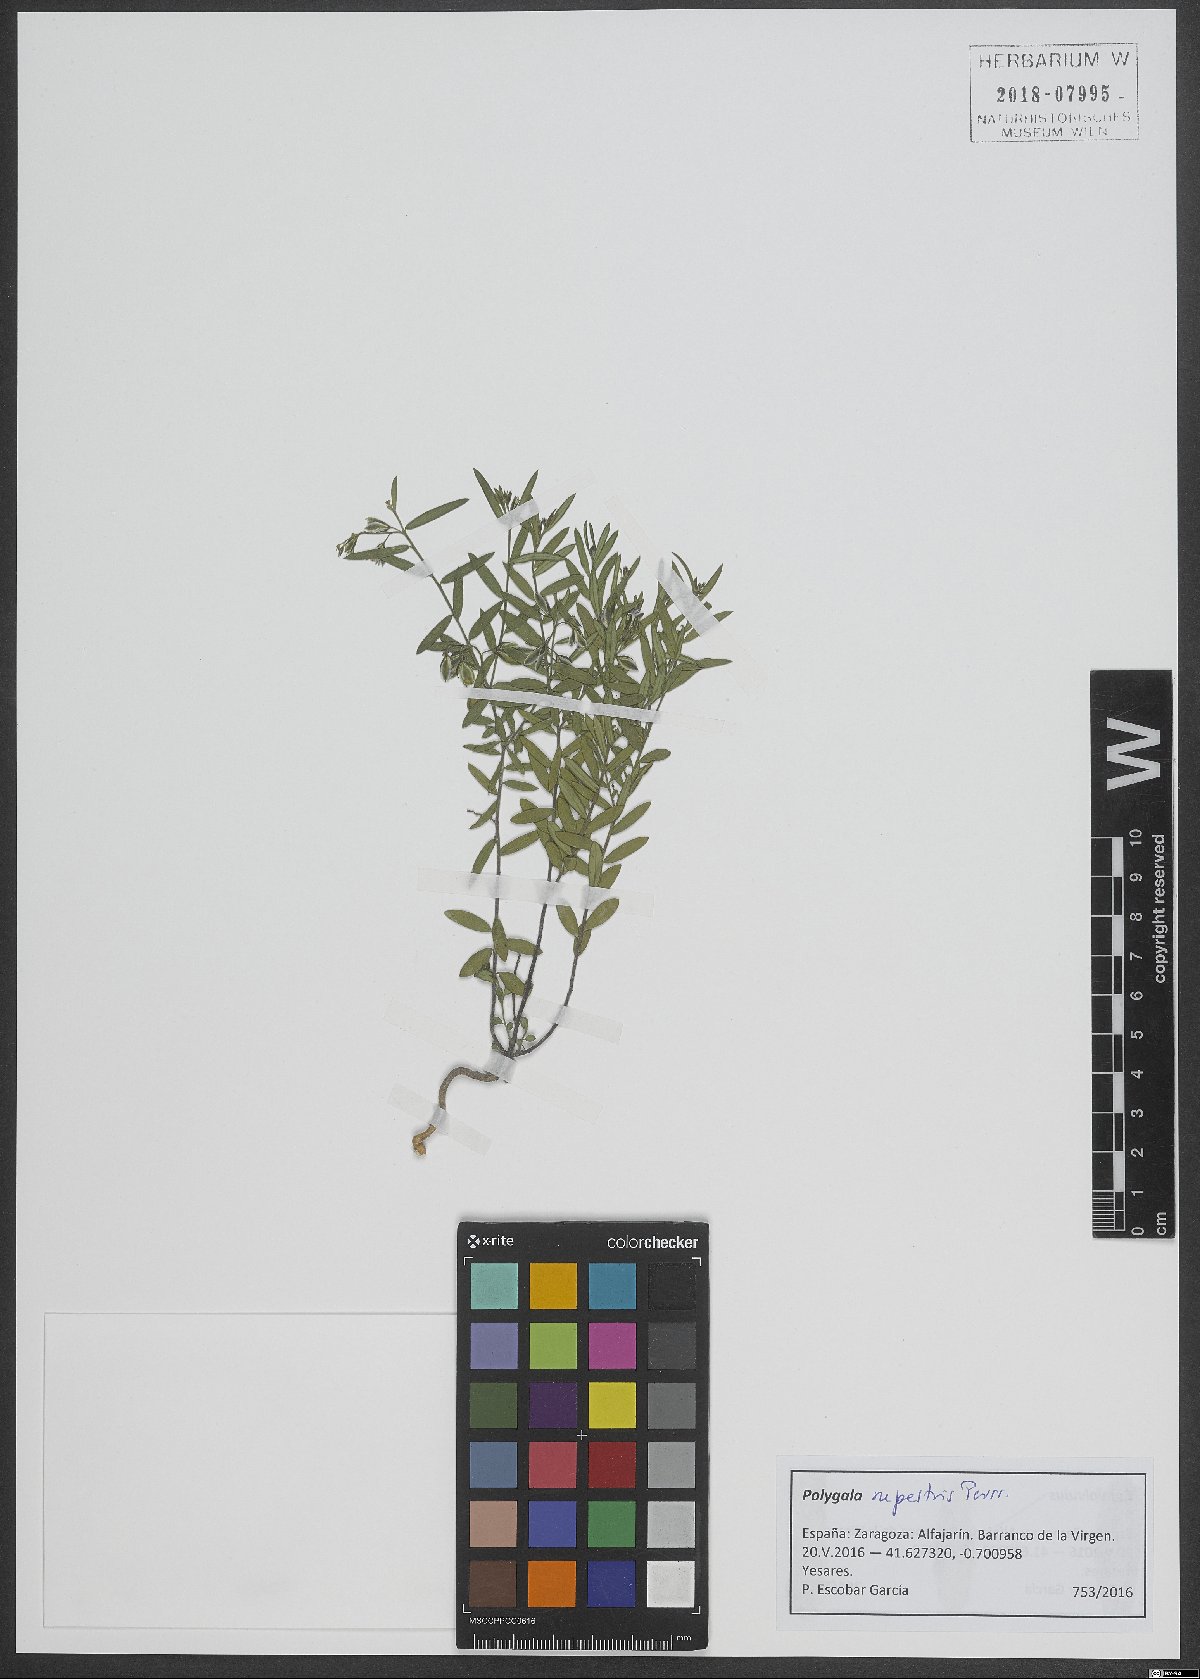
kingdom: Plantae
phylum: Tracheophyta
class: Magnoliopsida
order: Fabales
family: Polygalaceae
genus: Polygala
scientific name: Polygala rupestris
